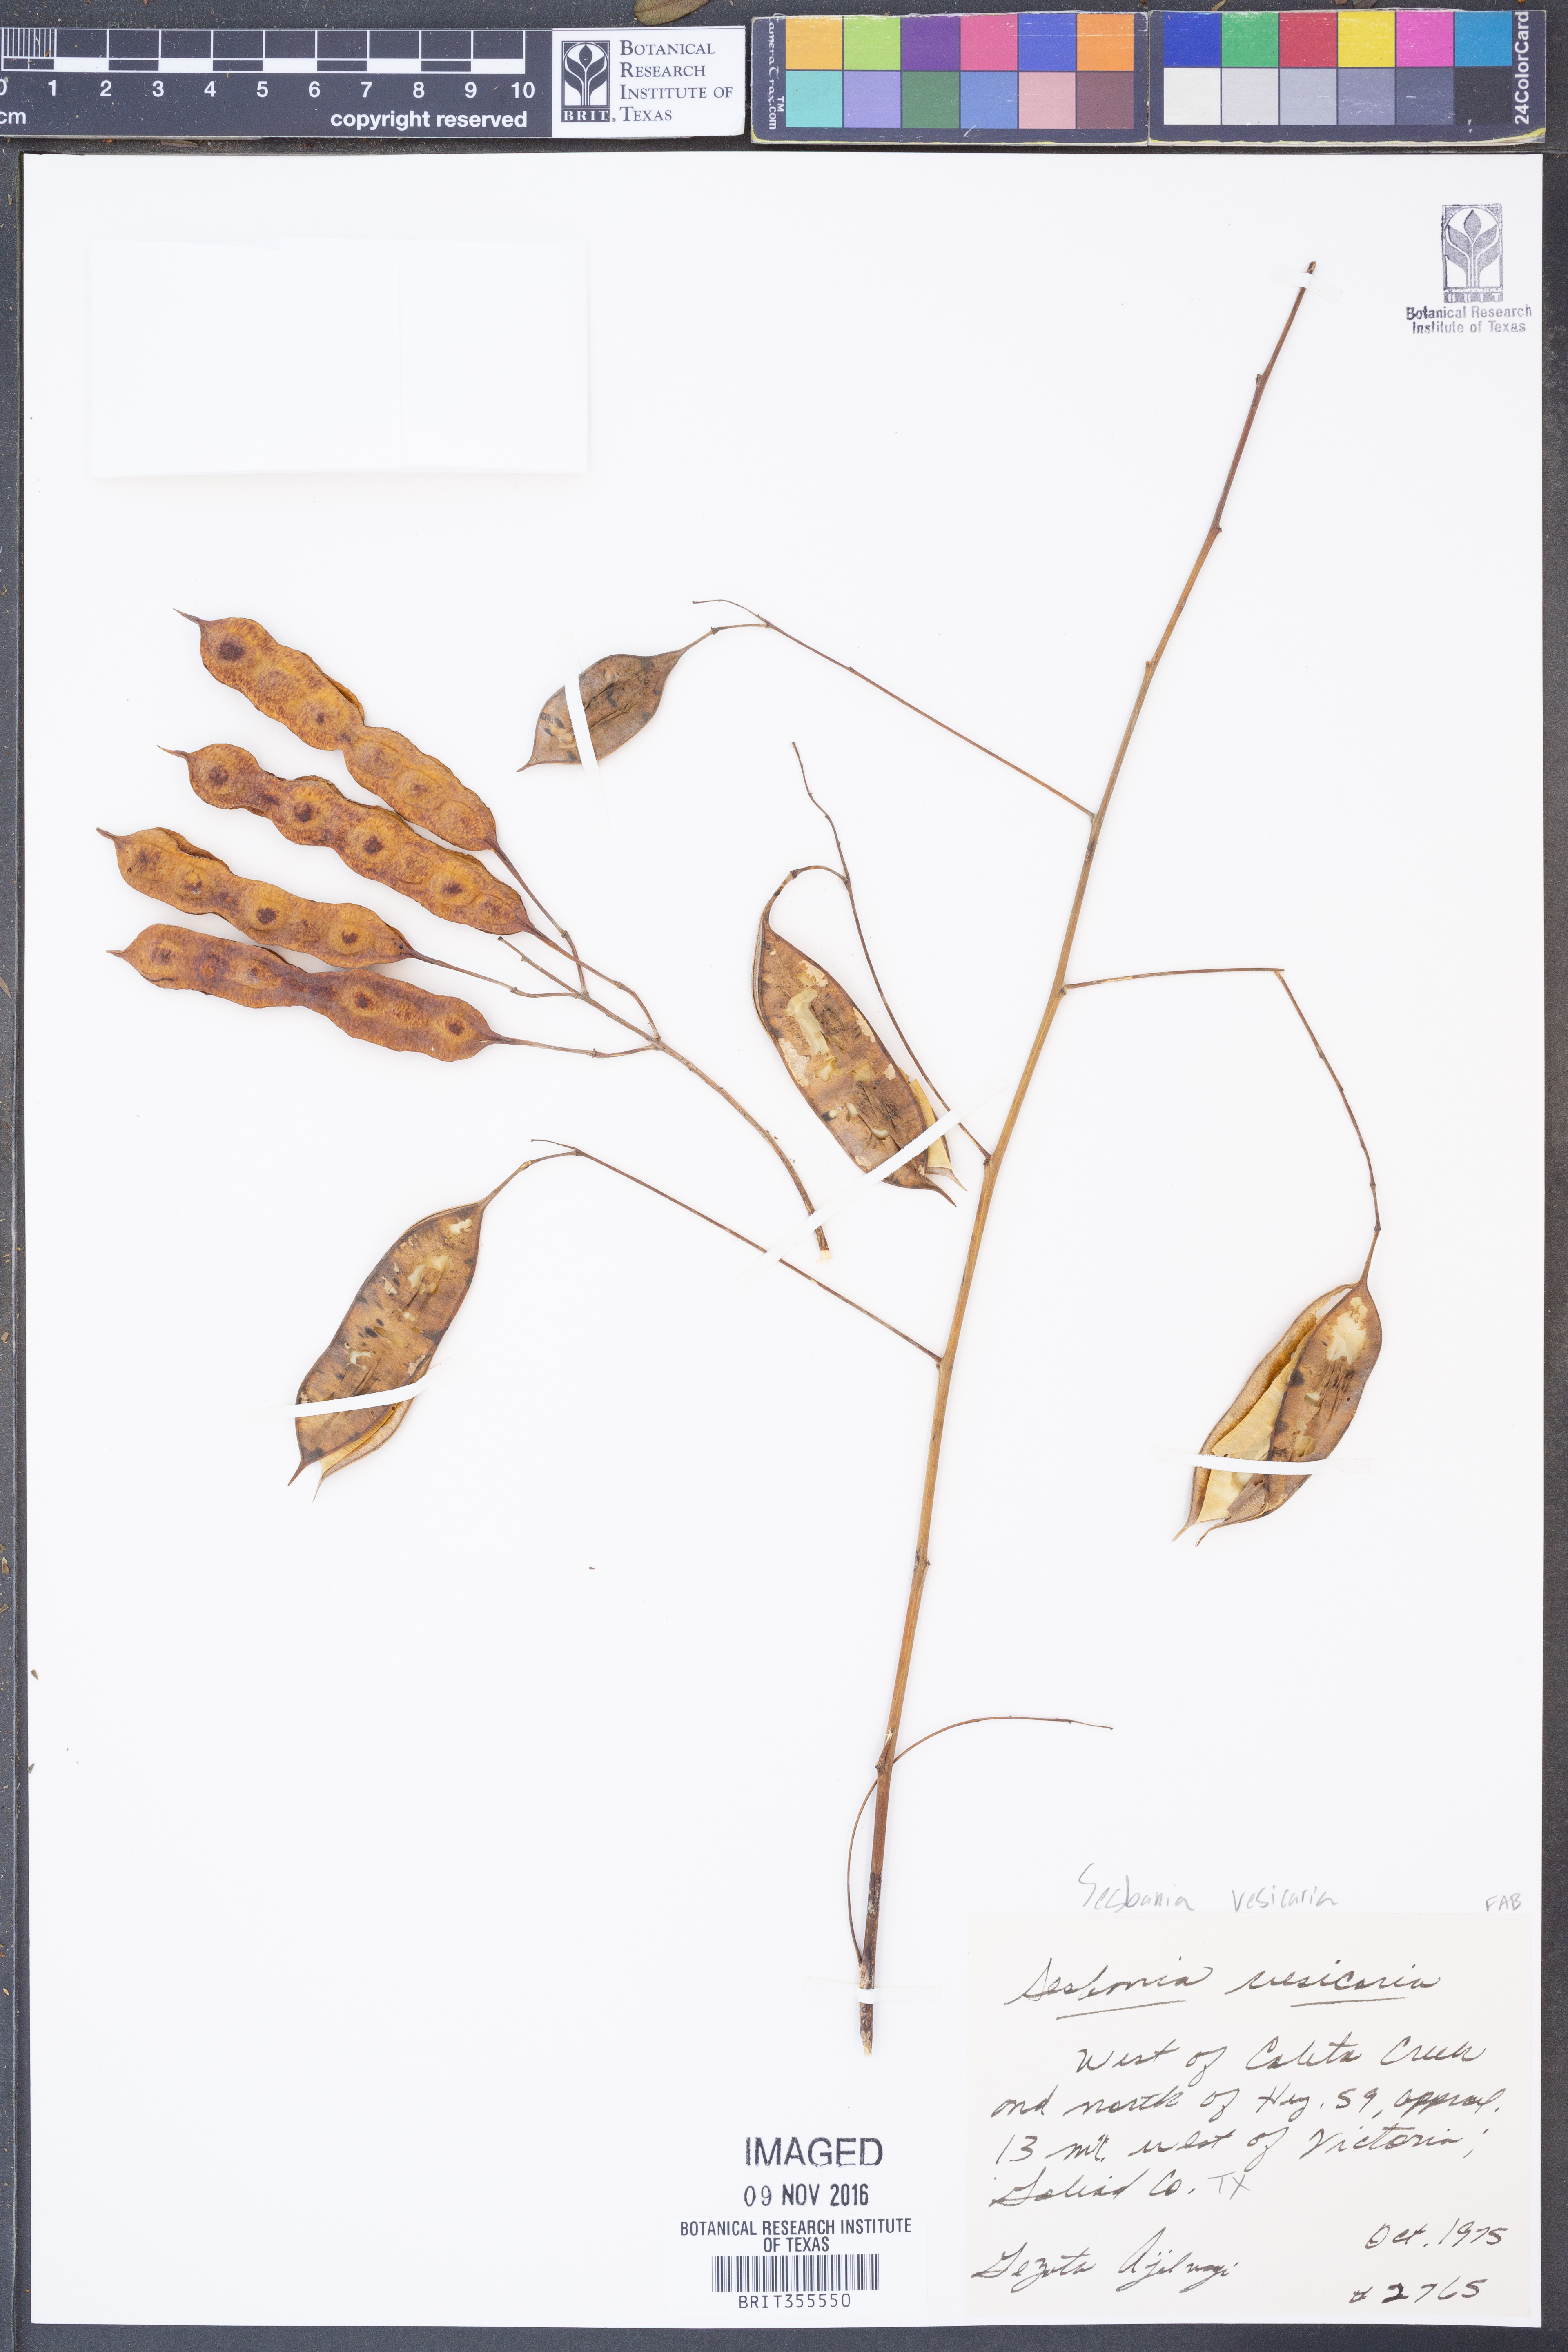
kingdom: Plantae
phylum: Tracheophyta
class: Magnoliopsida
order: Fabales
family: Fabaceae
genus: Sesbania
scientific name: Sesbania vesicaria
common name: Bagpod
